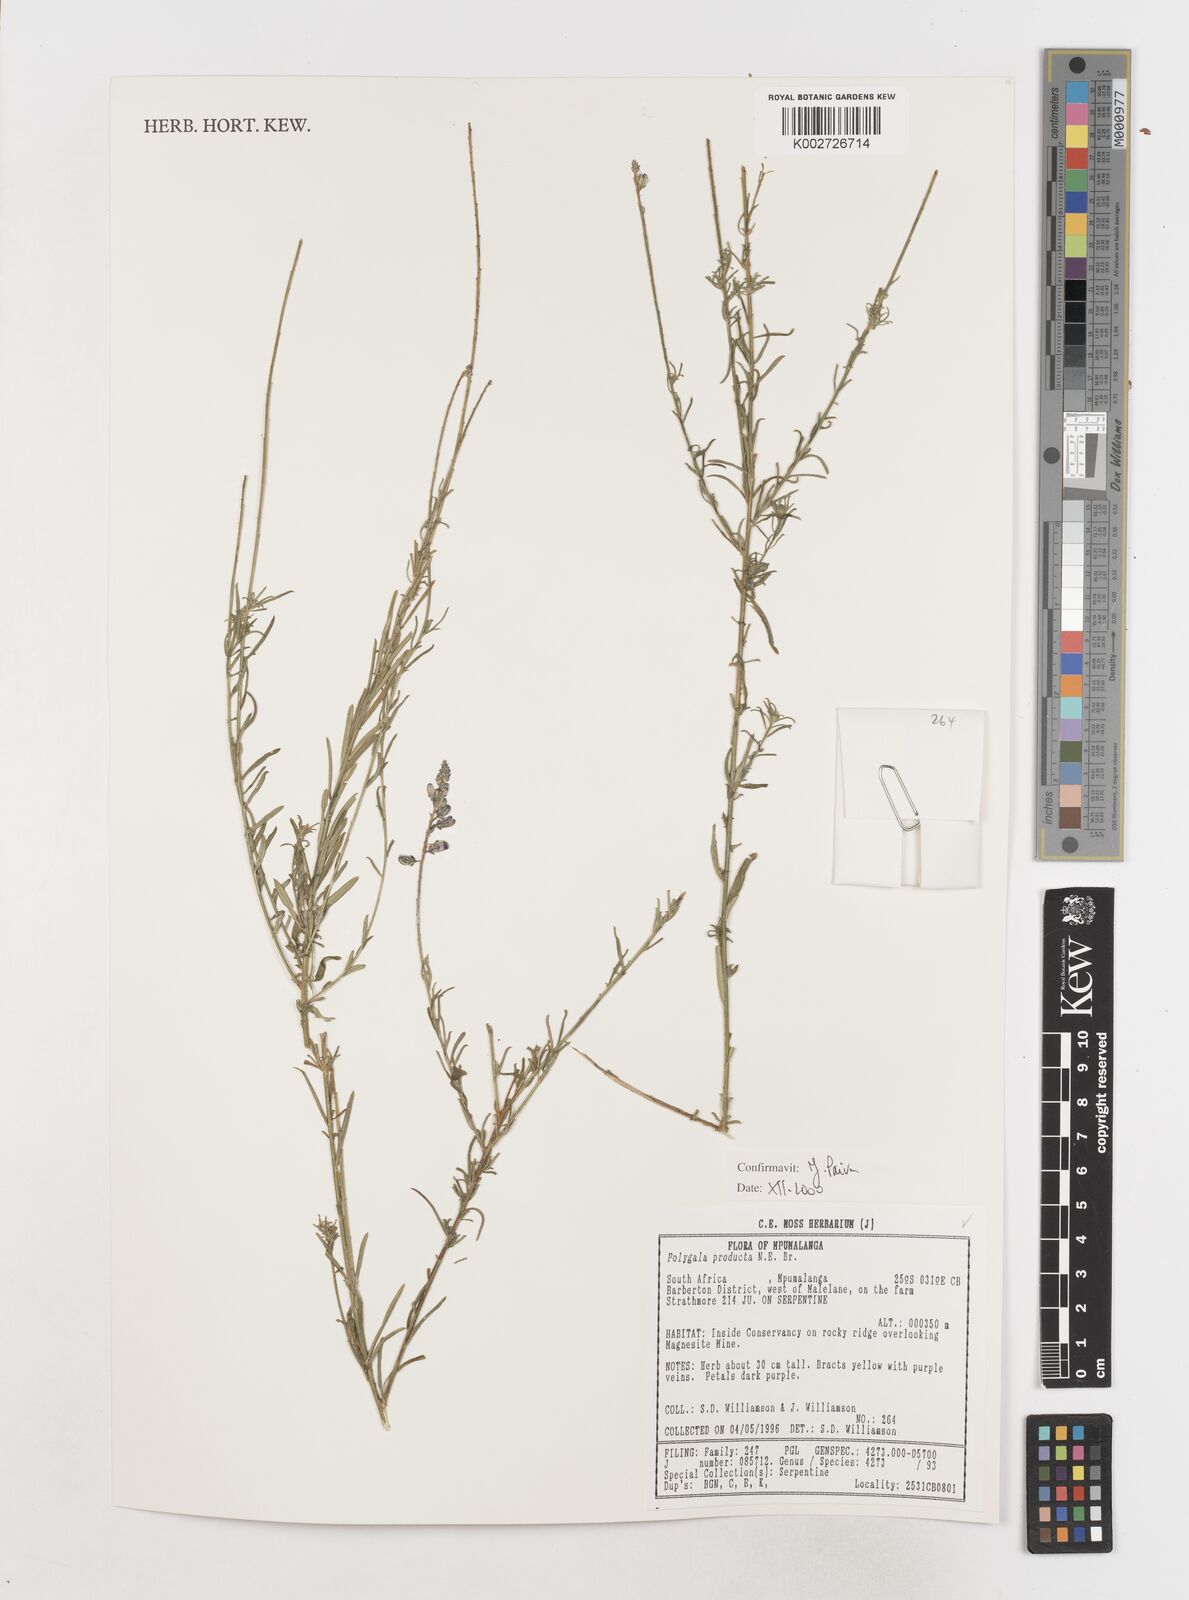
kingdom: Plantae
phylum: Tracheophyta
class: Magnoliopsida
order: Fabales
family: Polygalaceae
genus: Polygala
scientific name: Polygala producta
